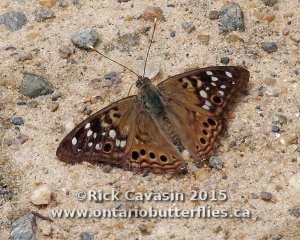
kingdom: Animalia
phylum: Arthropoda
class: Insecta
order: Lepidoptera
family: Nymphalidae
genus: Asterocampa
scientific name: Asterocampa celtis
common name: Hackberry Emperor
